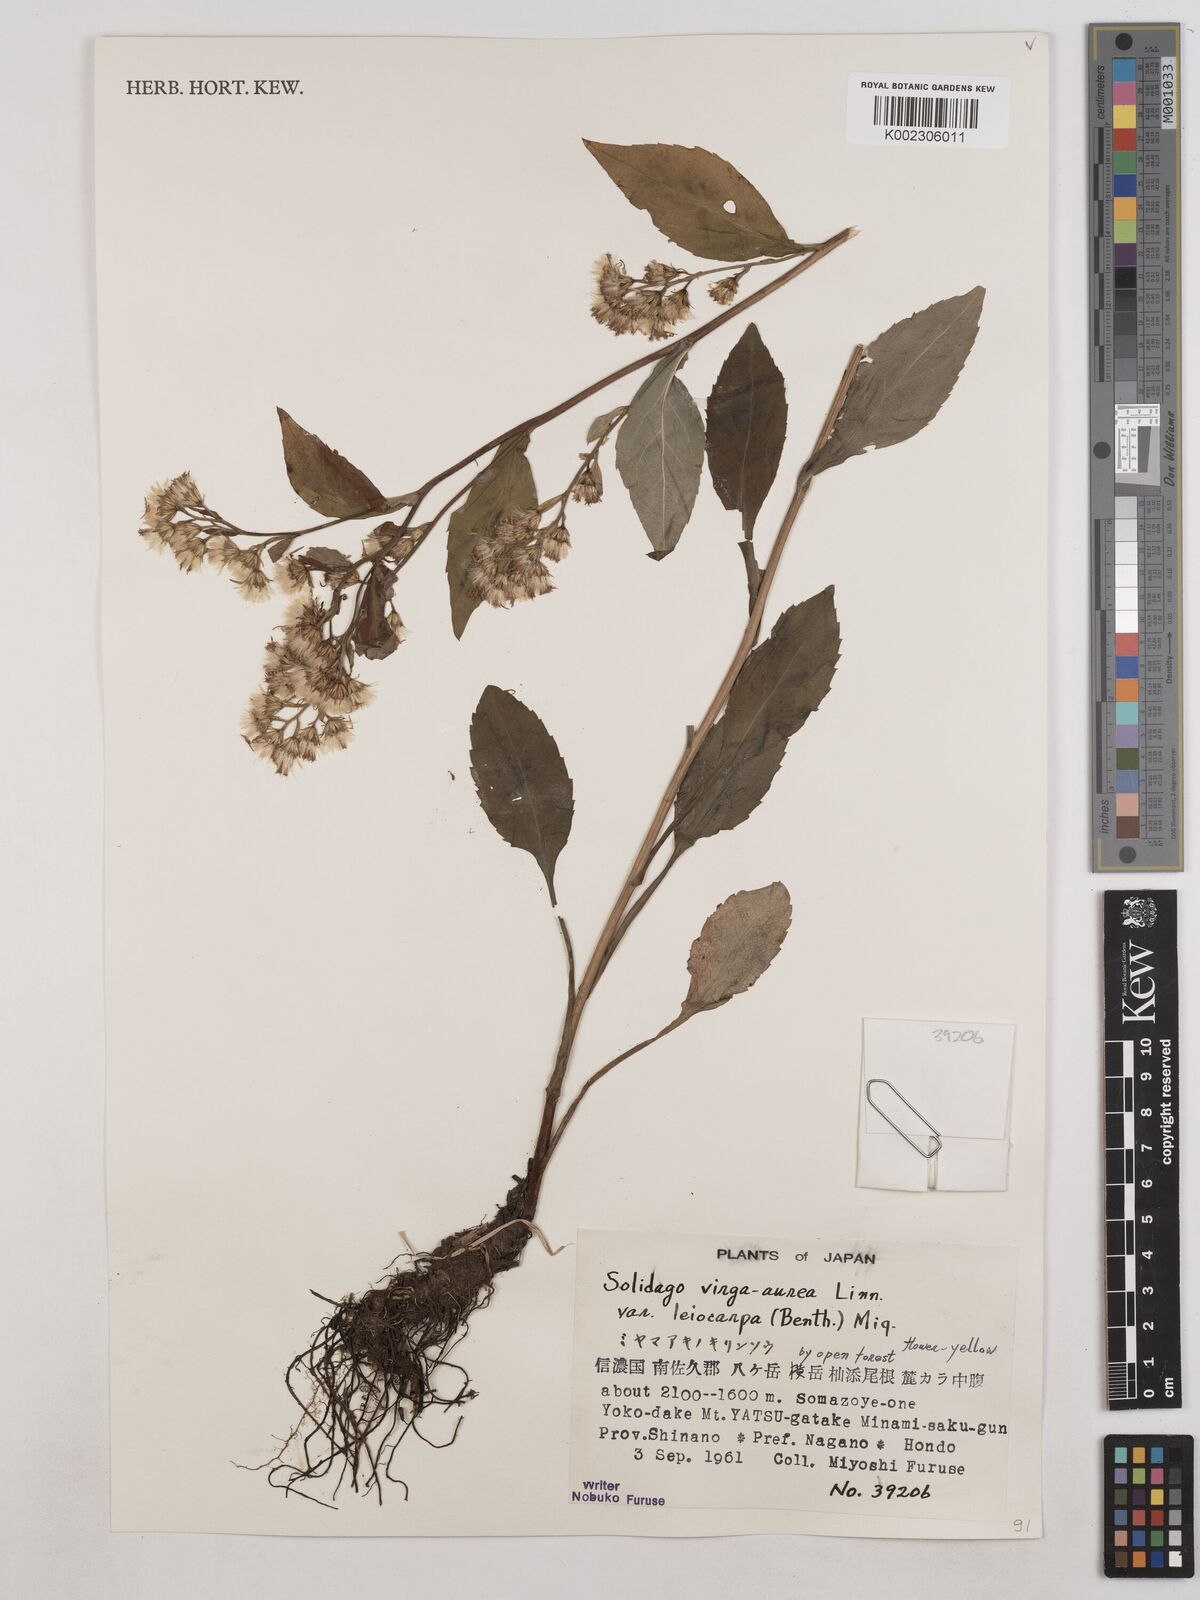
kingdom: Plantae
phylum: Tracheophyta
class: Magnoliopsida
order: Asterales
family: Asteraceae
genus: Solidago
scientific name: Solidago decurrens
